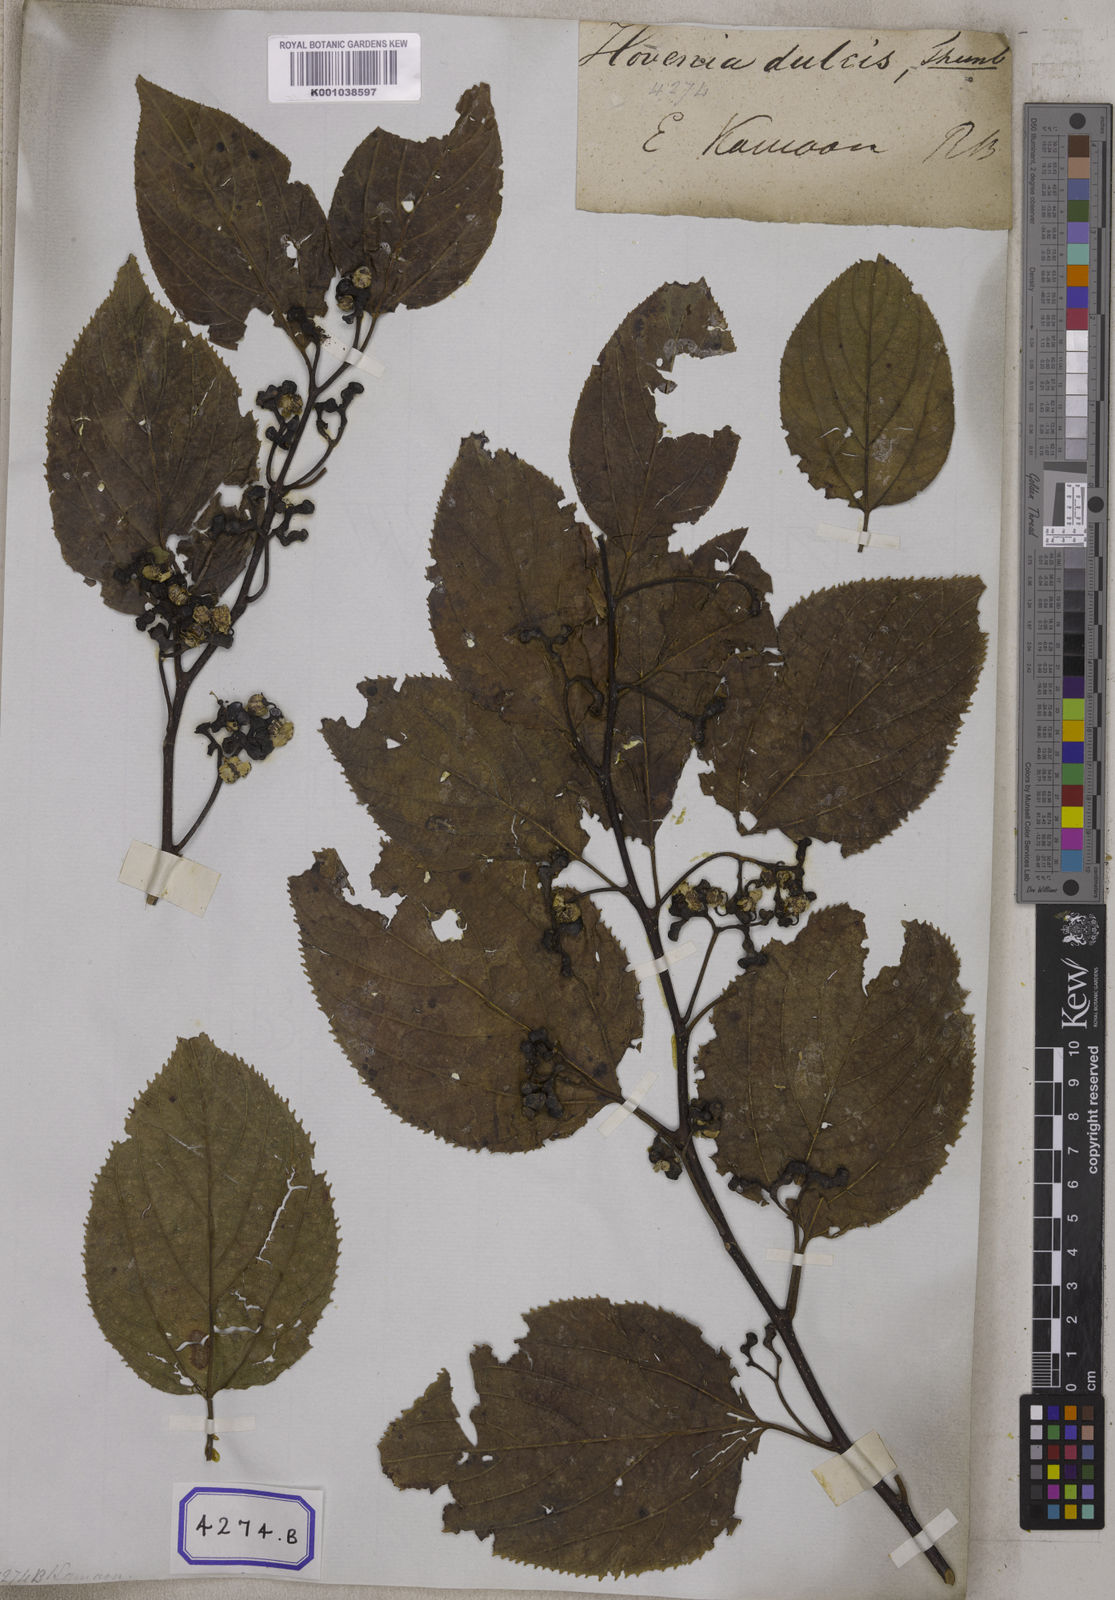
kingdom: Plantae
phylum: Tracheophyta
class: Magnoliopsida
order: Rosales
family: Rhamnaceae
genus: Hovenia
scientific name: Hovenia dulcis
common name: Japanese raisintree
